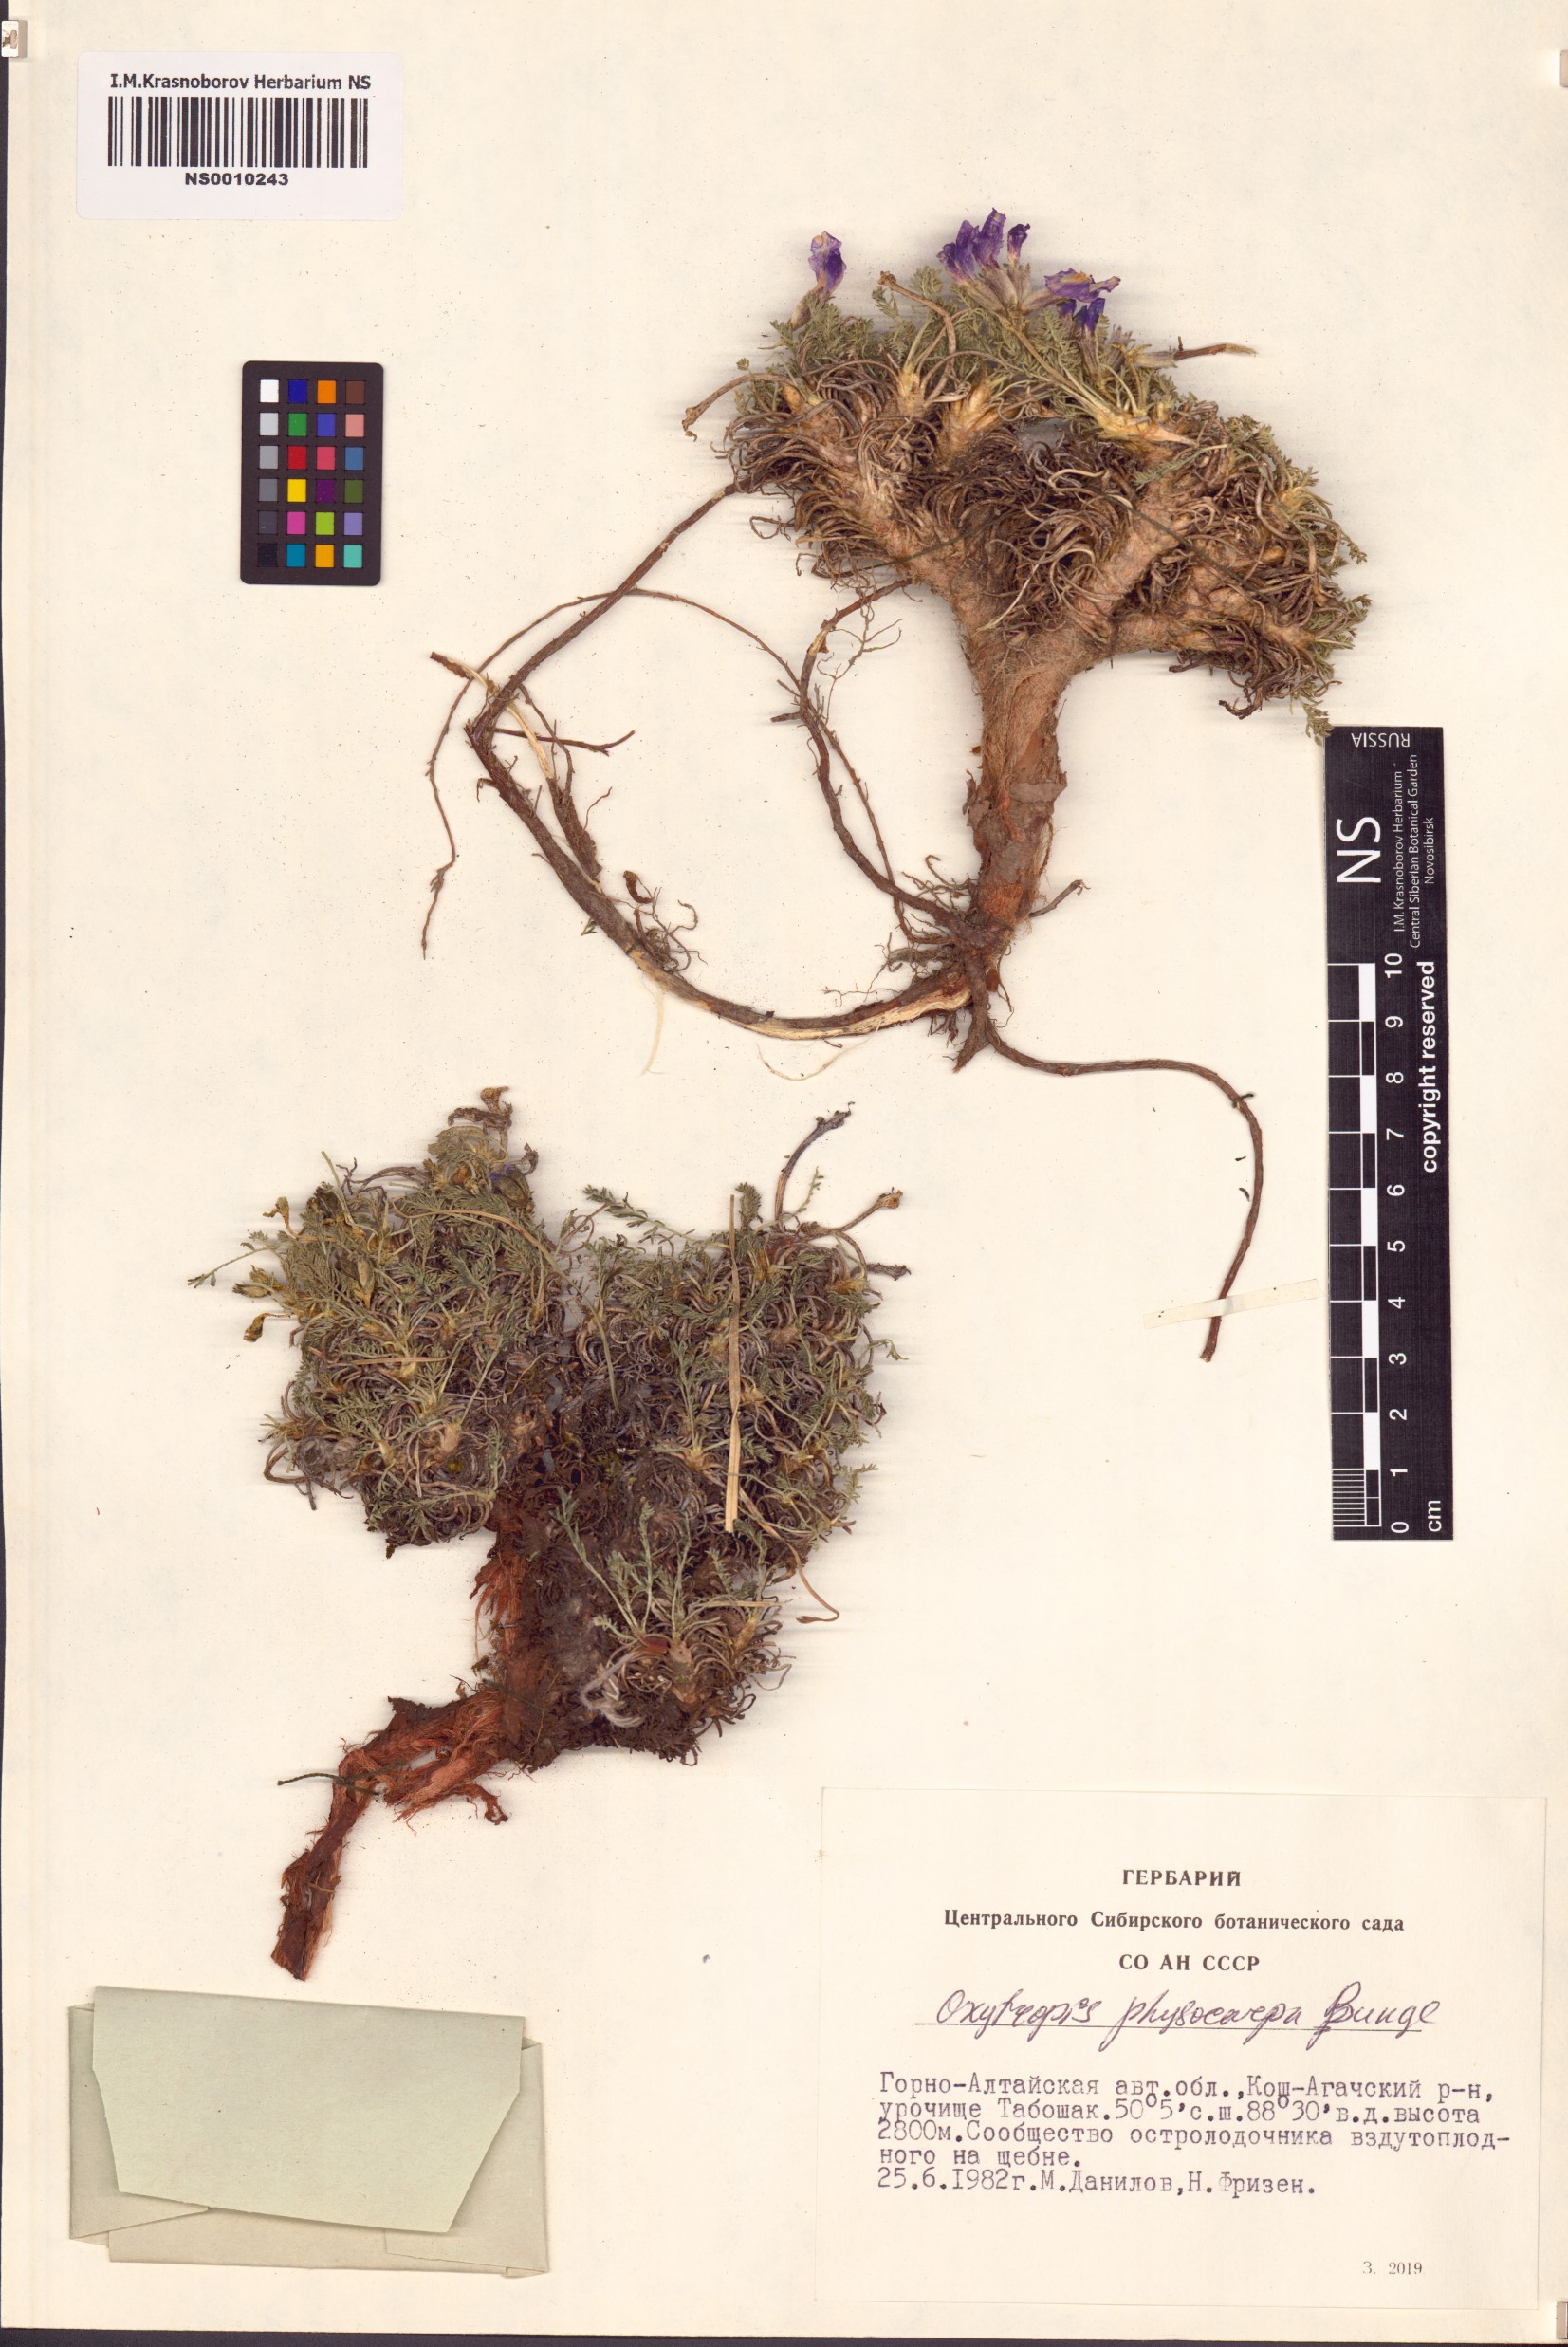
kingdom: Plantae
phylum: Tracheophyta
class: Magnoliopsida
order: Fabales
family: Fabaceae
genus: Oxytropis
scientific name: Oxytropis physocarpa
